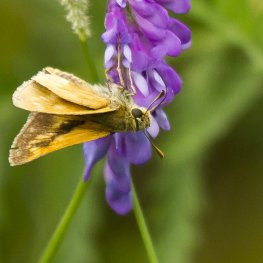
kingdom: Animalia
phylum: Arthropoda
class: Insecta
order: Lepidoptera
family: Hesperiidae
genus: Polites
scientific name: Polites
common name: Long Dash Skipper
